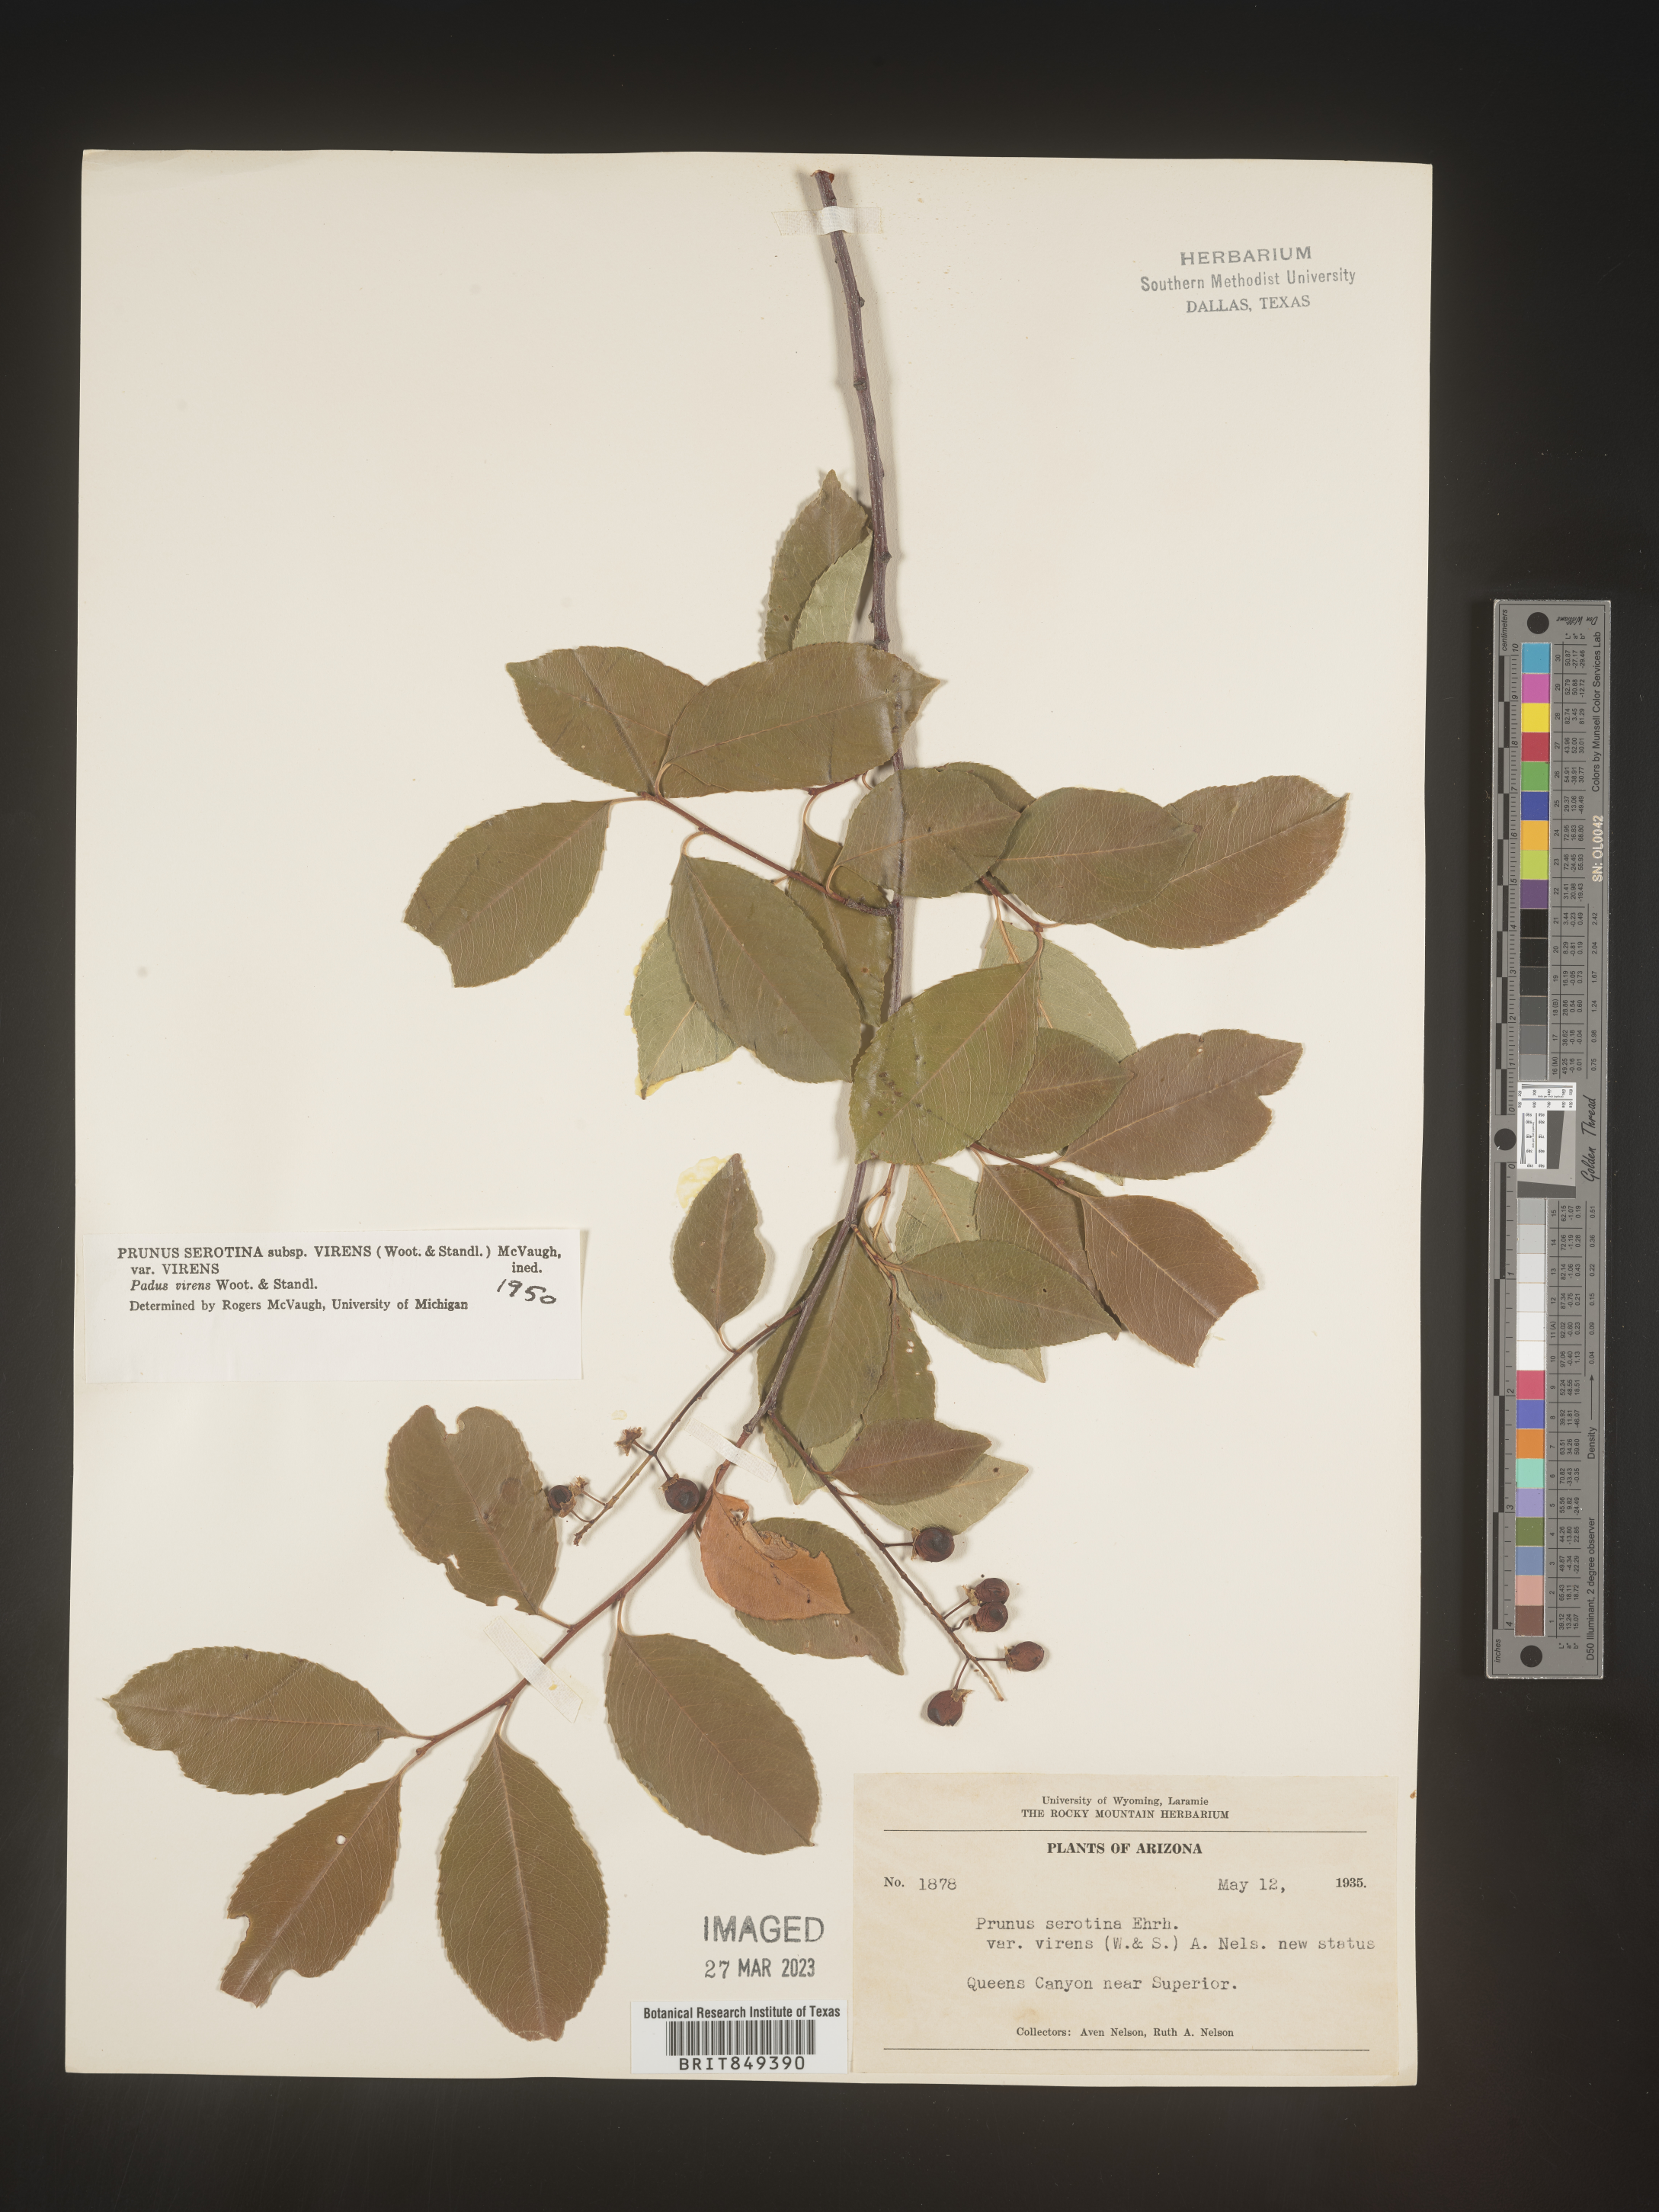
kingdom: Plantae
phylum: Tracheophyta
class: Magnoliopsida
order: Rosales
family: Rosaceae
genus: Prunus
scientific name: Prunus serotina
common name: Black cherry
